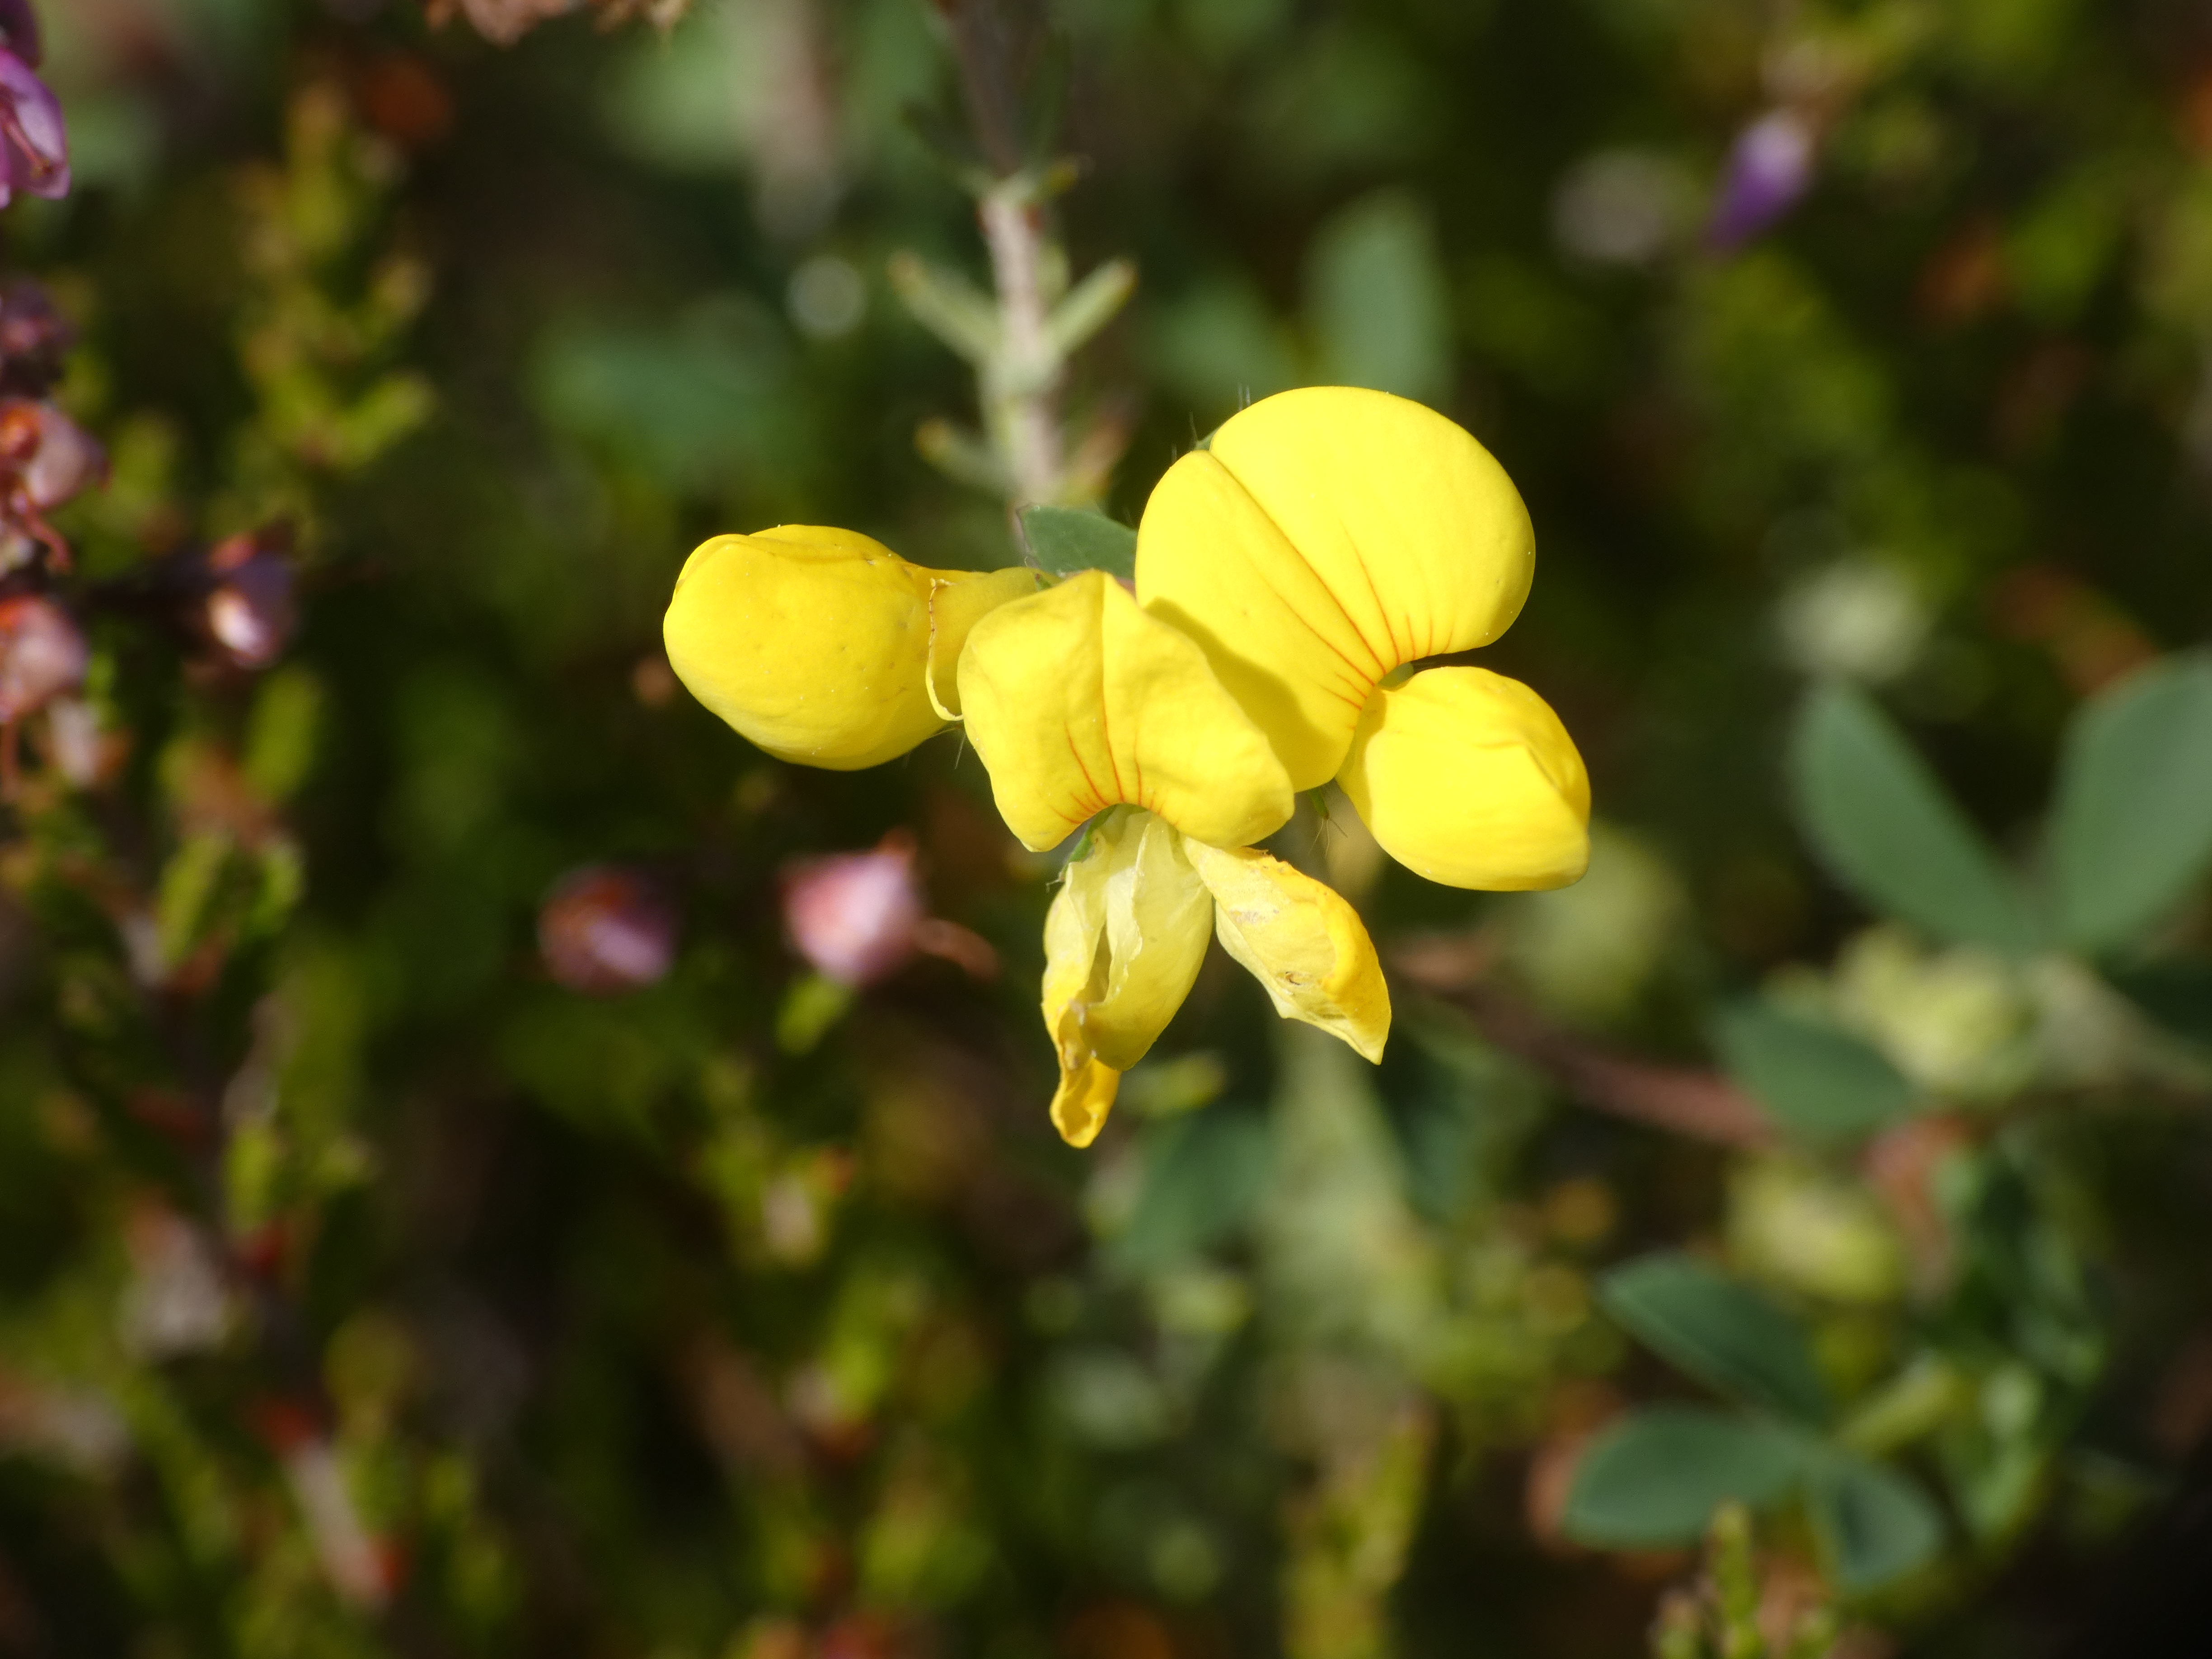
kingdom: Plantae
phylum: Tracheophyta
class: Magnoliopsida
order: Fabales
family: Fabaceae
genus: Lotus
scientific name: Lotus corniculatus
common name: Almindelig kællingetand
